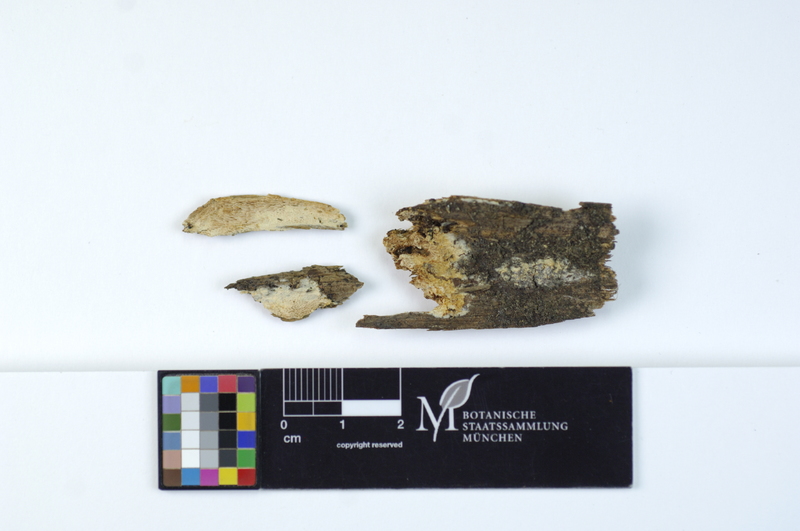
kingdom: Plantae
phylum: Tracheophyta
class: Pinopsida
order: Pinales
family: Pinaceae
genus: Pinus
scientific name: Pinus
